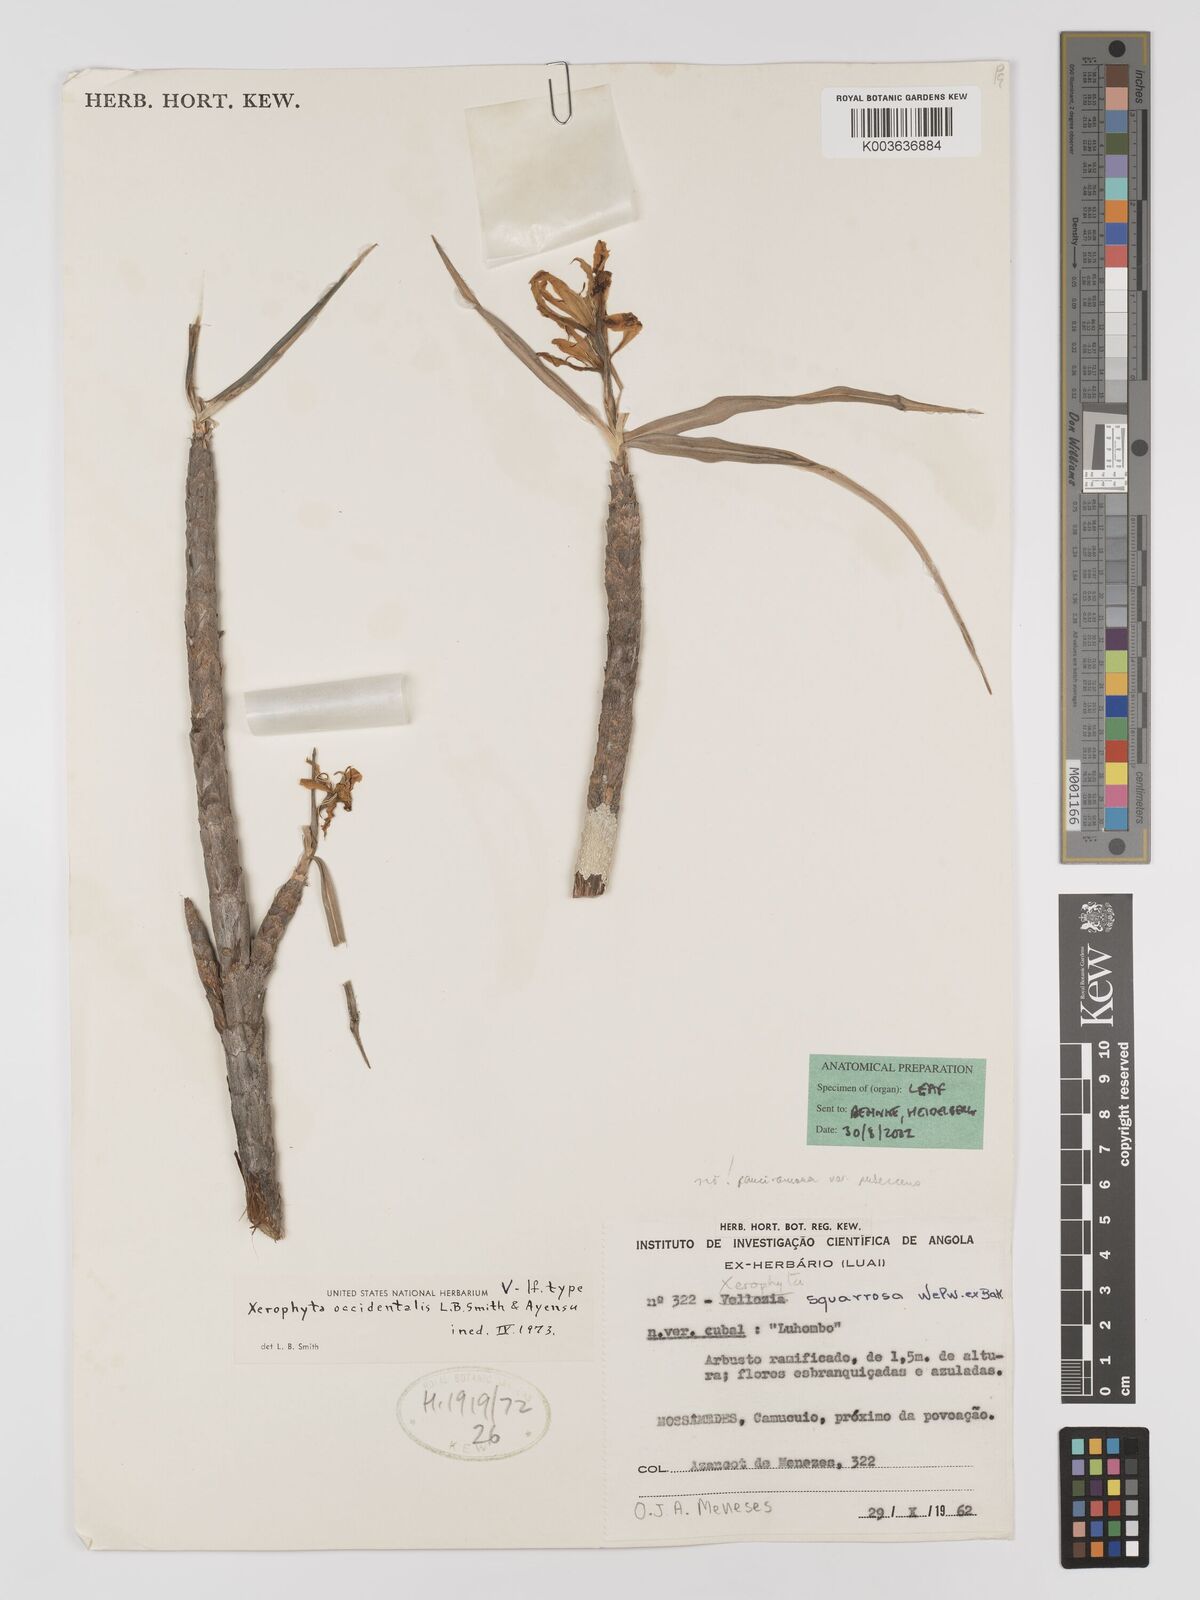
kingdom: Plantae
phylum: Tracheophyta
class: Liliopsida
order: Pandanales
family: Velloziaceae
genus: Xerophyta
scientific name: Xerophyta
